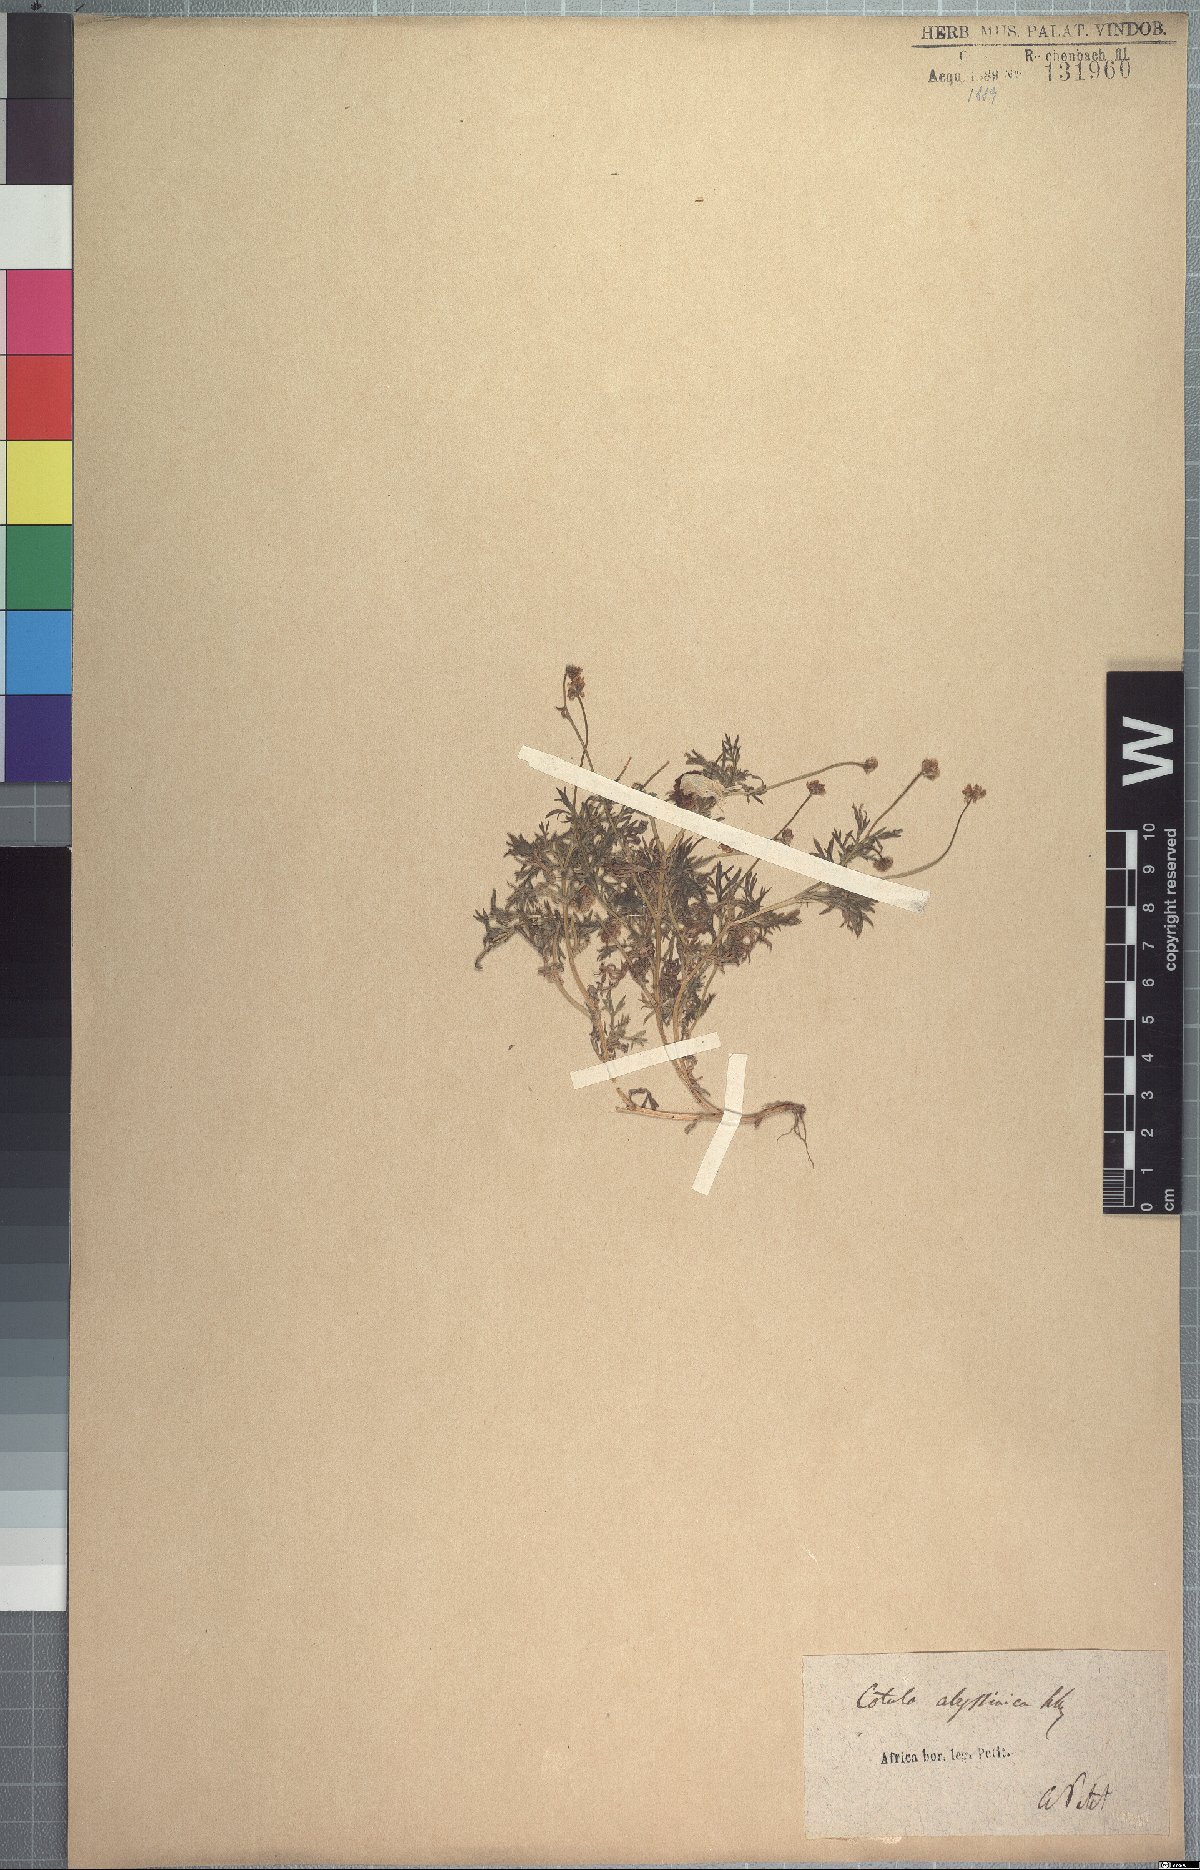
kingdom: Plantae
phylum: Tracheophyta
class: Magnoliopsida
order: Asterales
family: Asteraceae
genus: Cotula
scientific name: Cotula abyssinica
